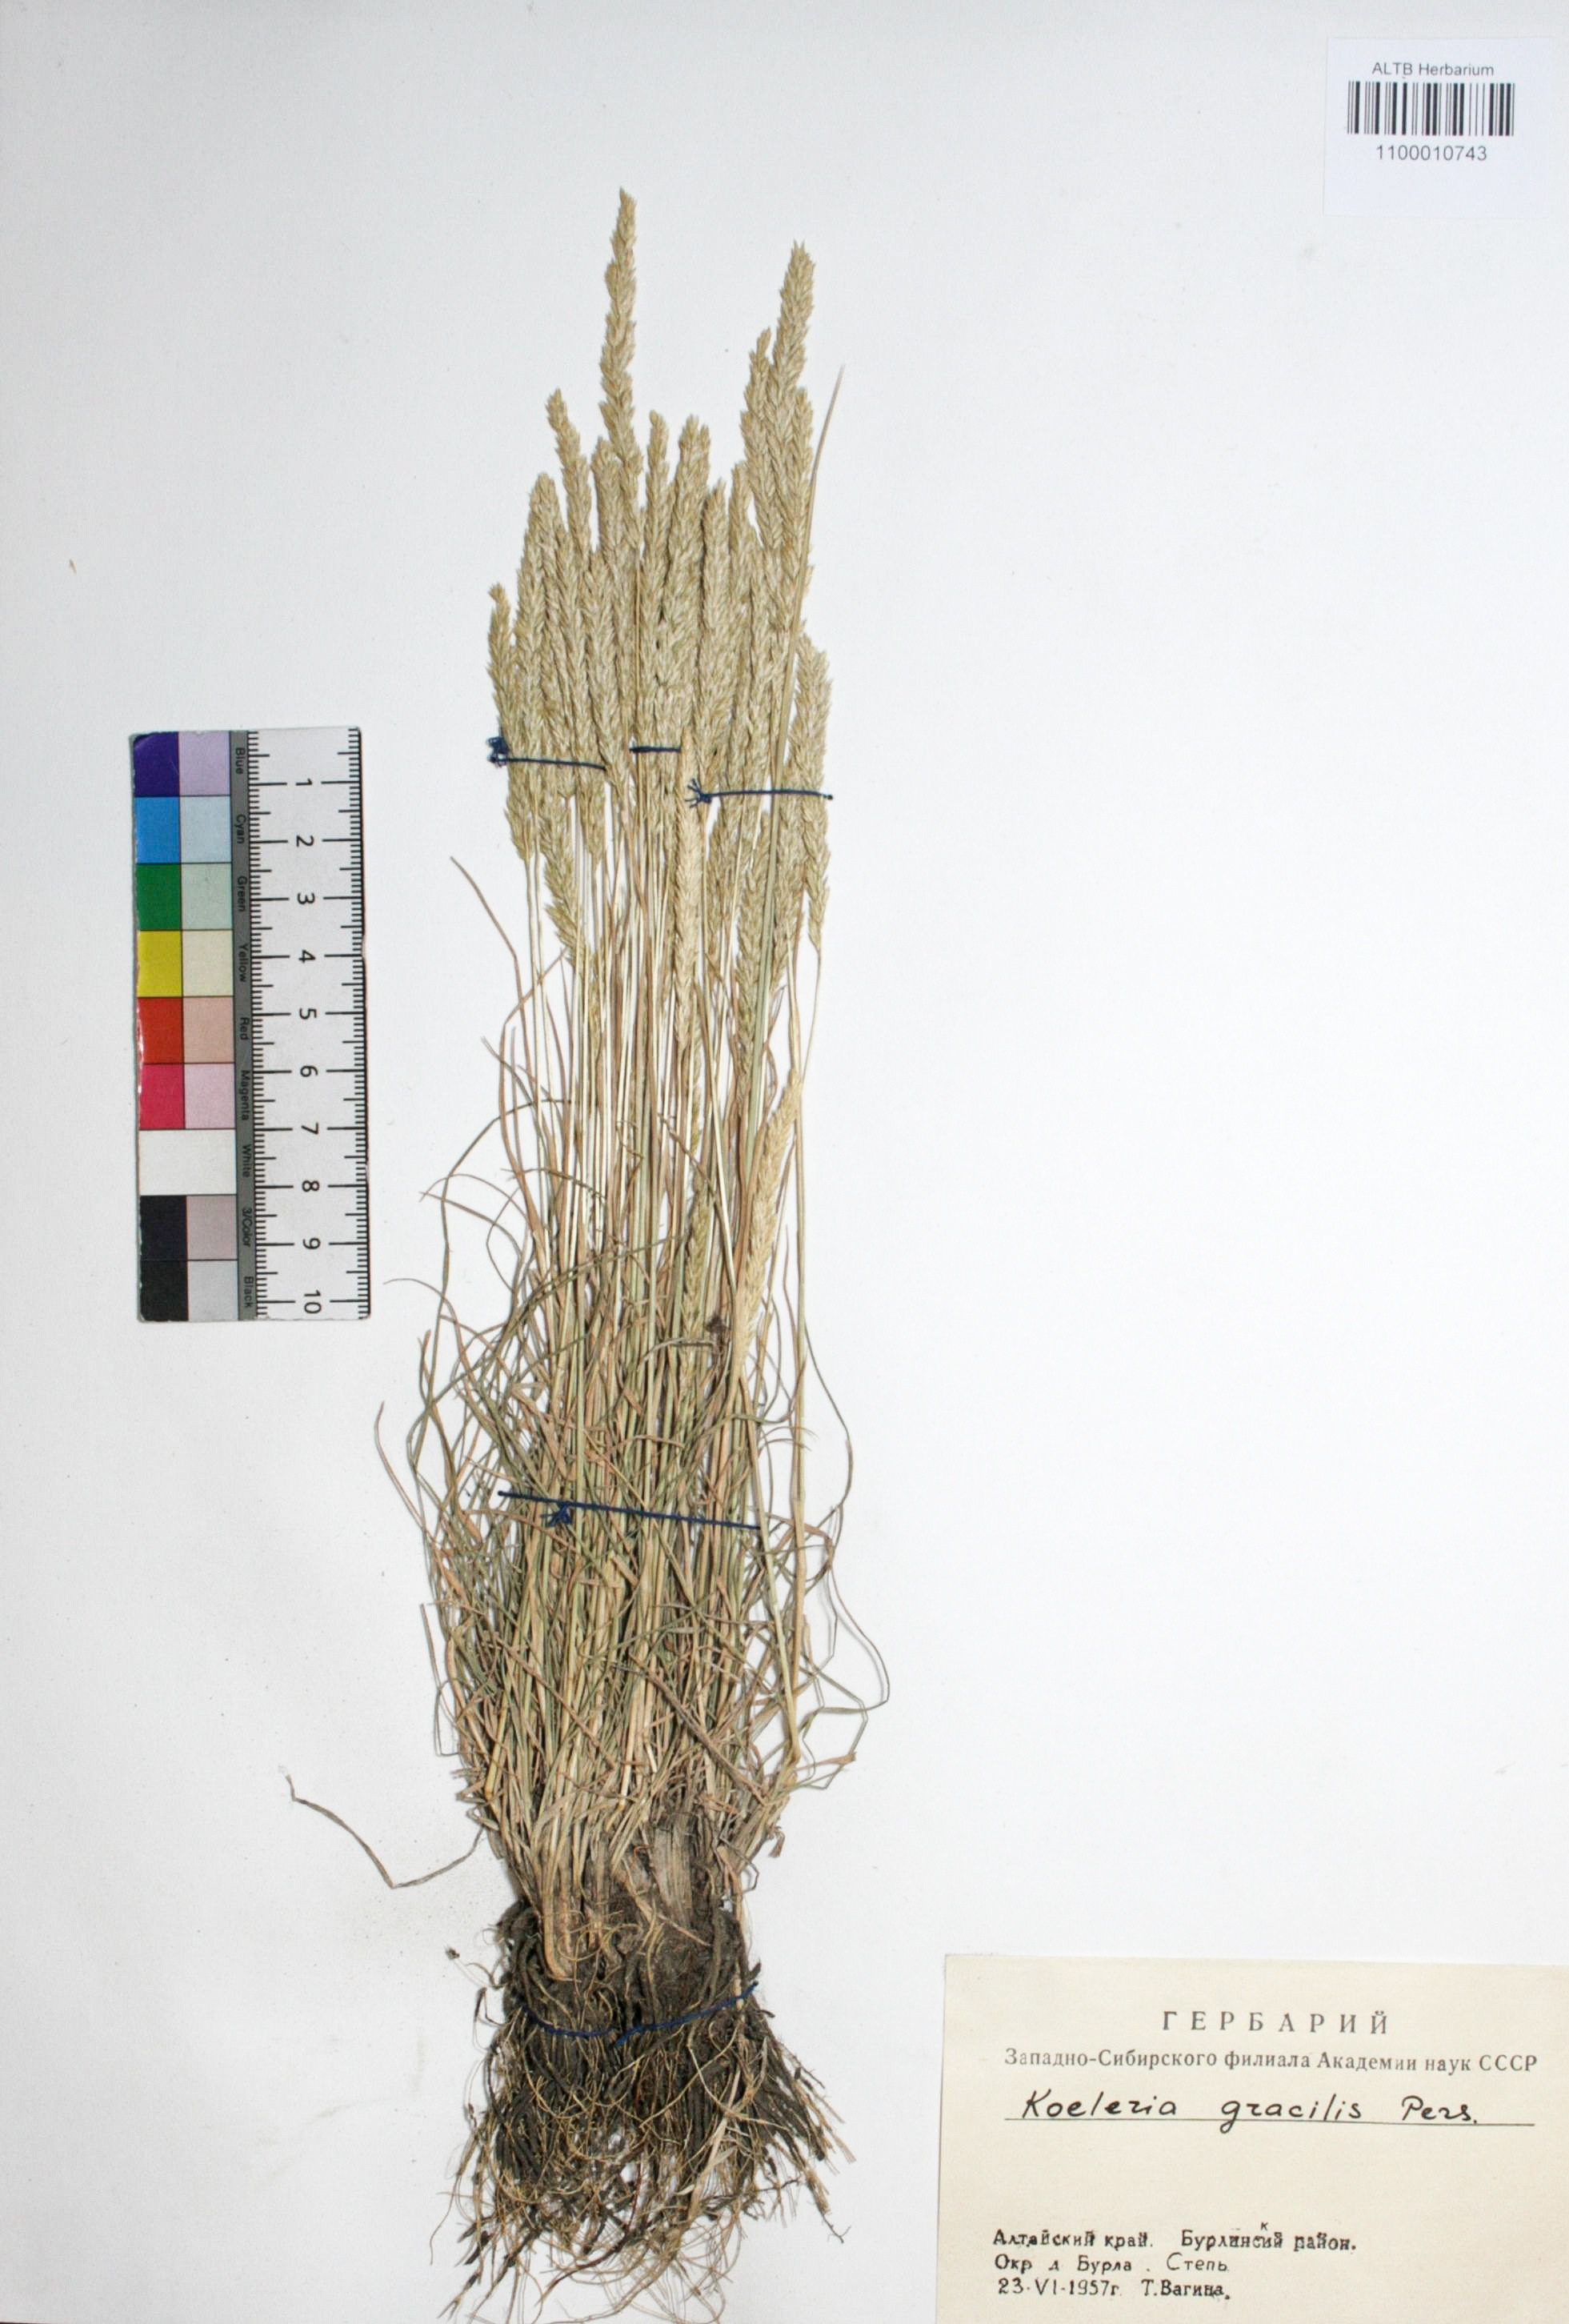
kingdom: Plantae
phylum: Tracheophyta
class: Liliopsida
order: Poales
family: Poaceae
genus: Koeleria
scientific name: Koeleria macrantha
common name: Crested hair-grass
